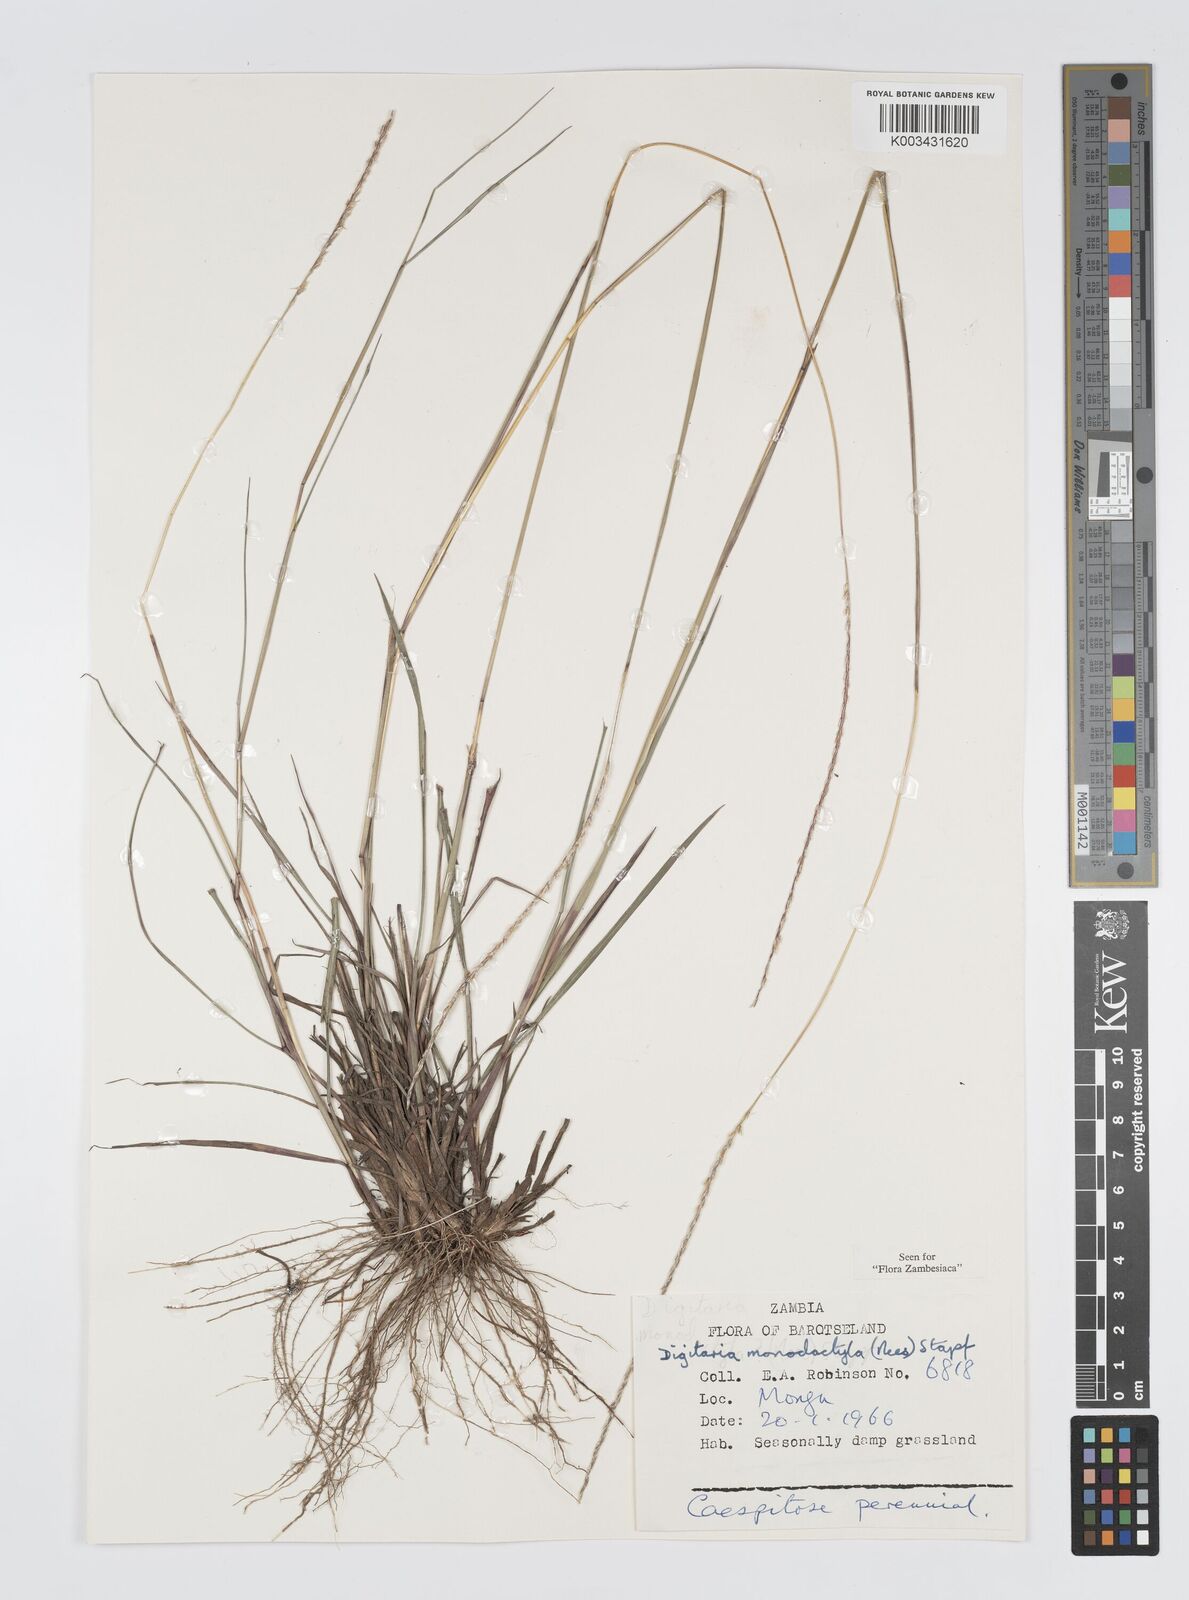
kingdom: Plantae
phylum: Tracheophyta
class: Liliopsida
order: Poales
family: Poaceae
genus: Digitaria
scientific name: Digitaria monodactyla
